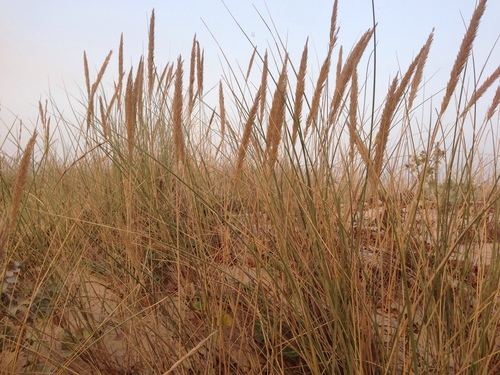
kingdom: Plantae
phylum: Tracheophyta
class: Liliopsida
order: Poales
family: Poaceae
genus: Calamagrostis
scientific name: Calamagrostis arenaria
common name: European beachgrass
